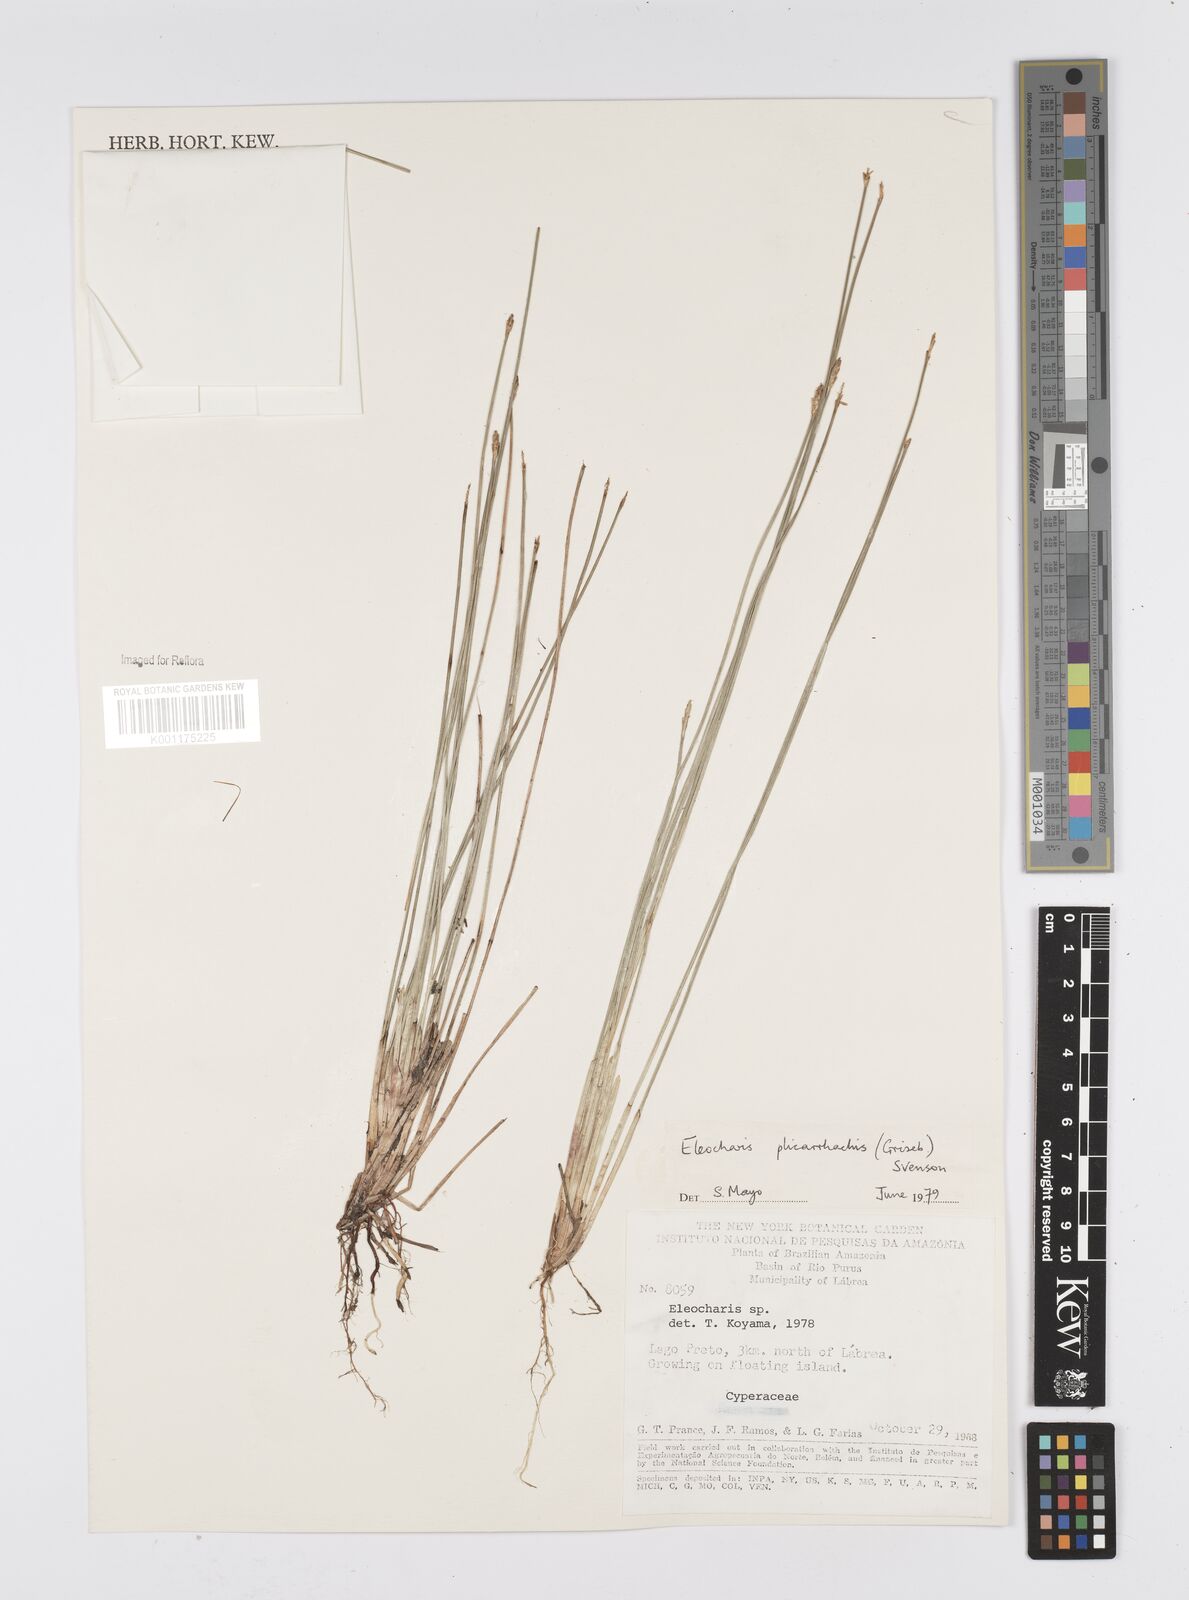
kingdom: Plantae
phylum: Tracheophyta
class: Liliopsida
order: Poales
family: Cyperaceae
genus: Eleocharis
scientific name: Eleocharis plicarhachis
